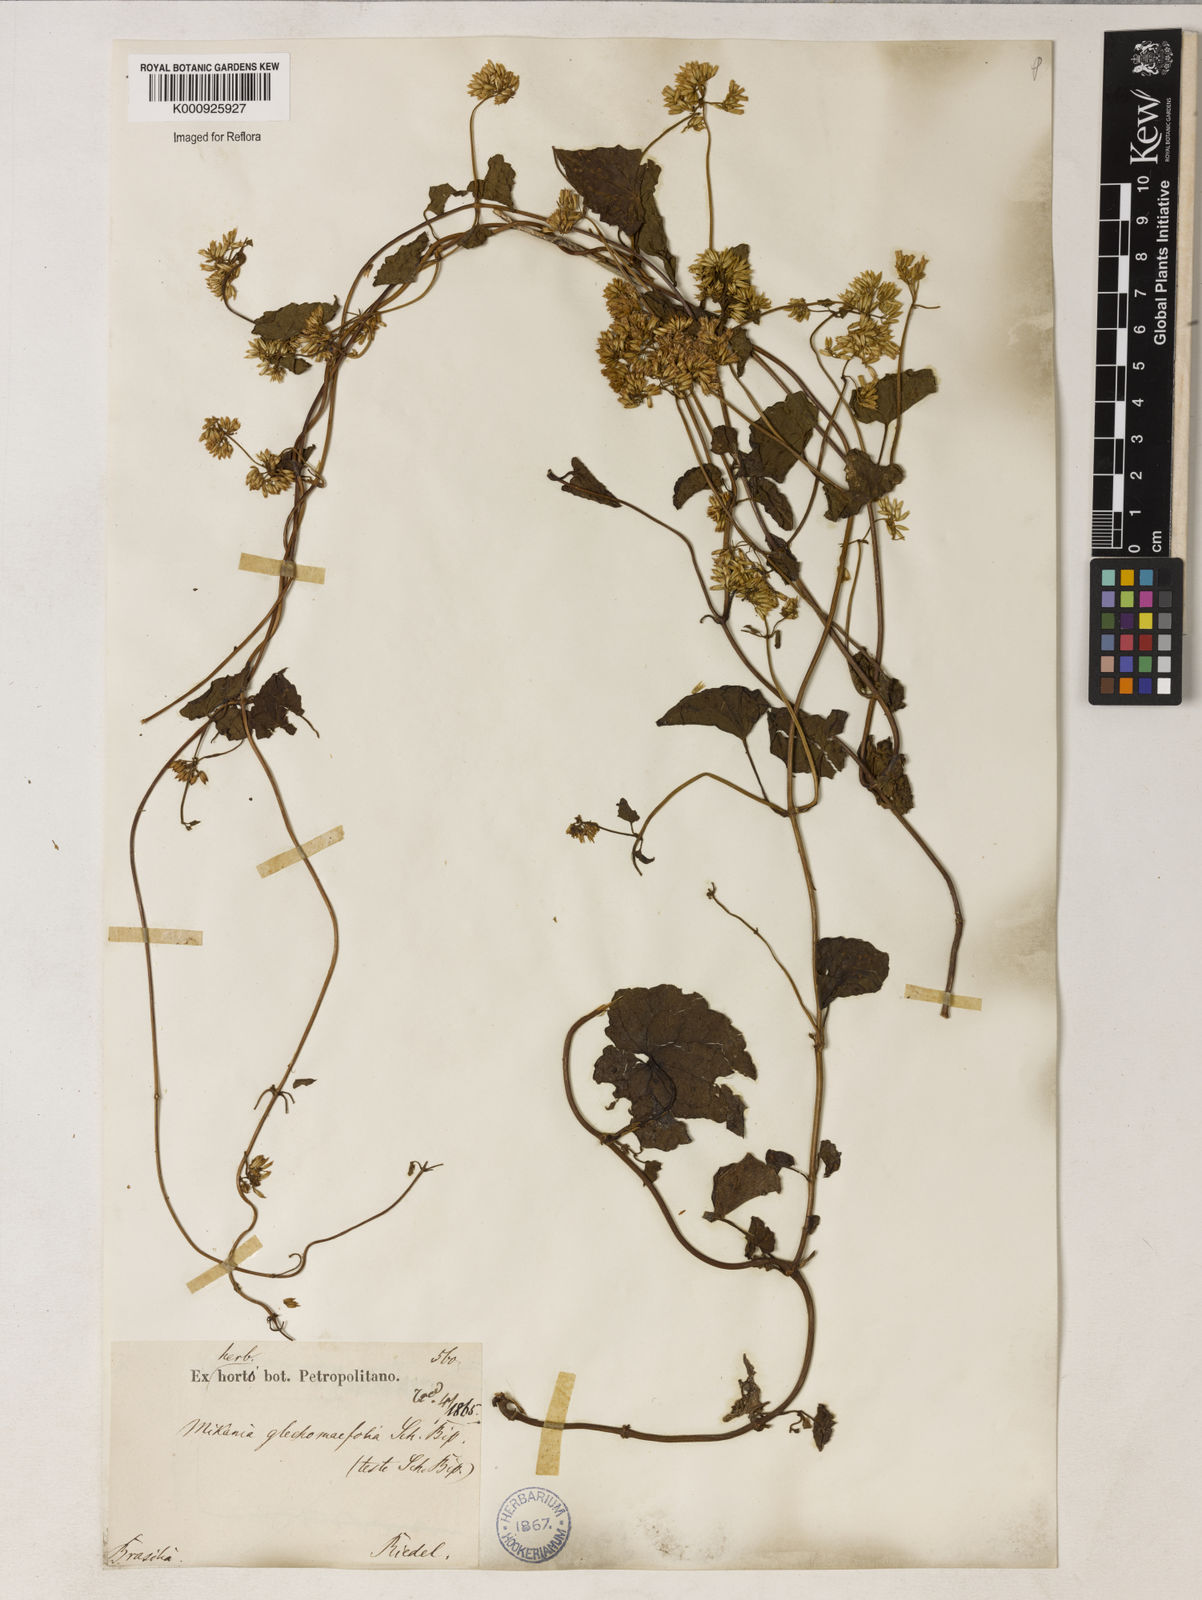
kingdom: Plantae
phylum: Tracheophyta
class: Magnoliopsida
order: Asterales
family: Asteraceae
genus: Mikania
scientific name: Mikania micrantha
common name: Mile-a-minute
